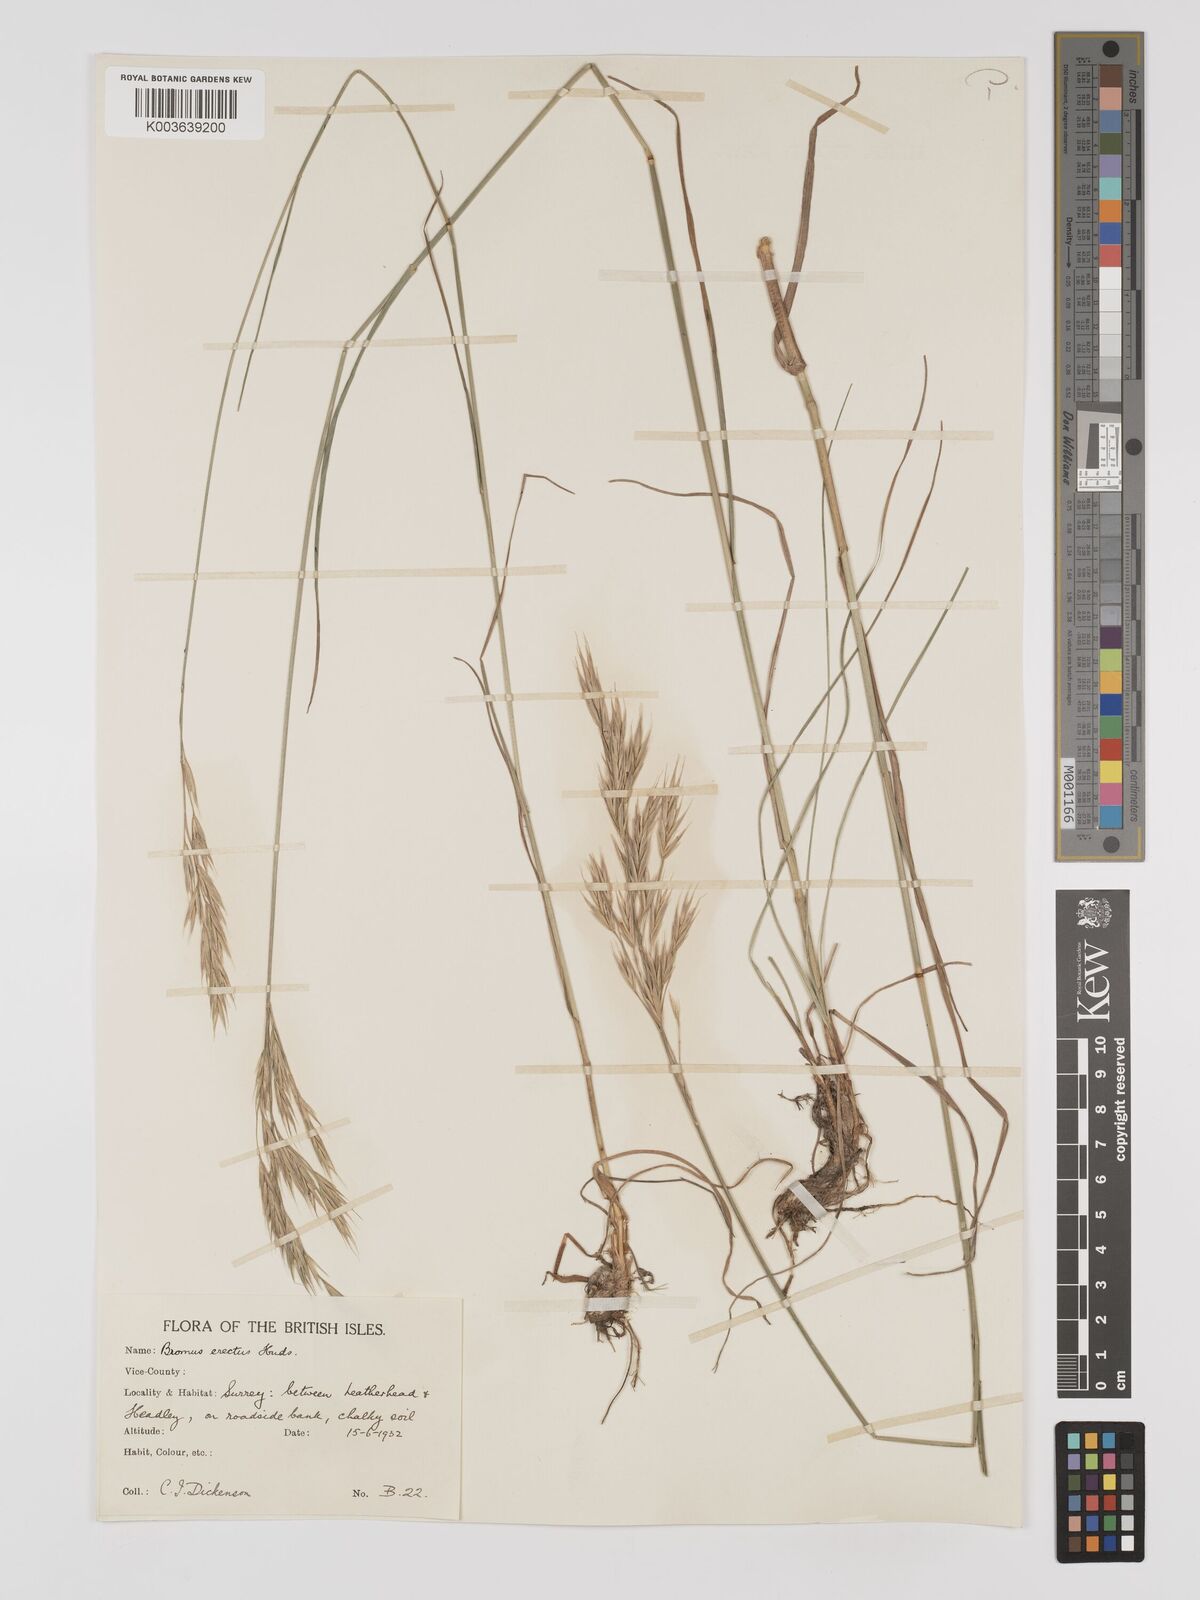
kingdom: Plantae
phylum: Tracheophyta
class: Liliopsida
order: Poales
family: Poaceae
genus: Bromus
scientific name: Bromus erectus
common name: Erect brome
